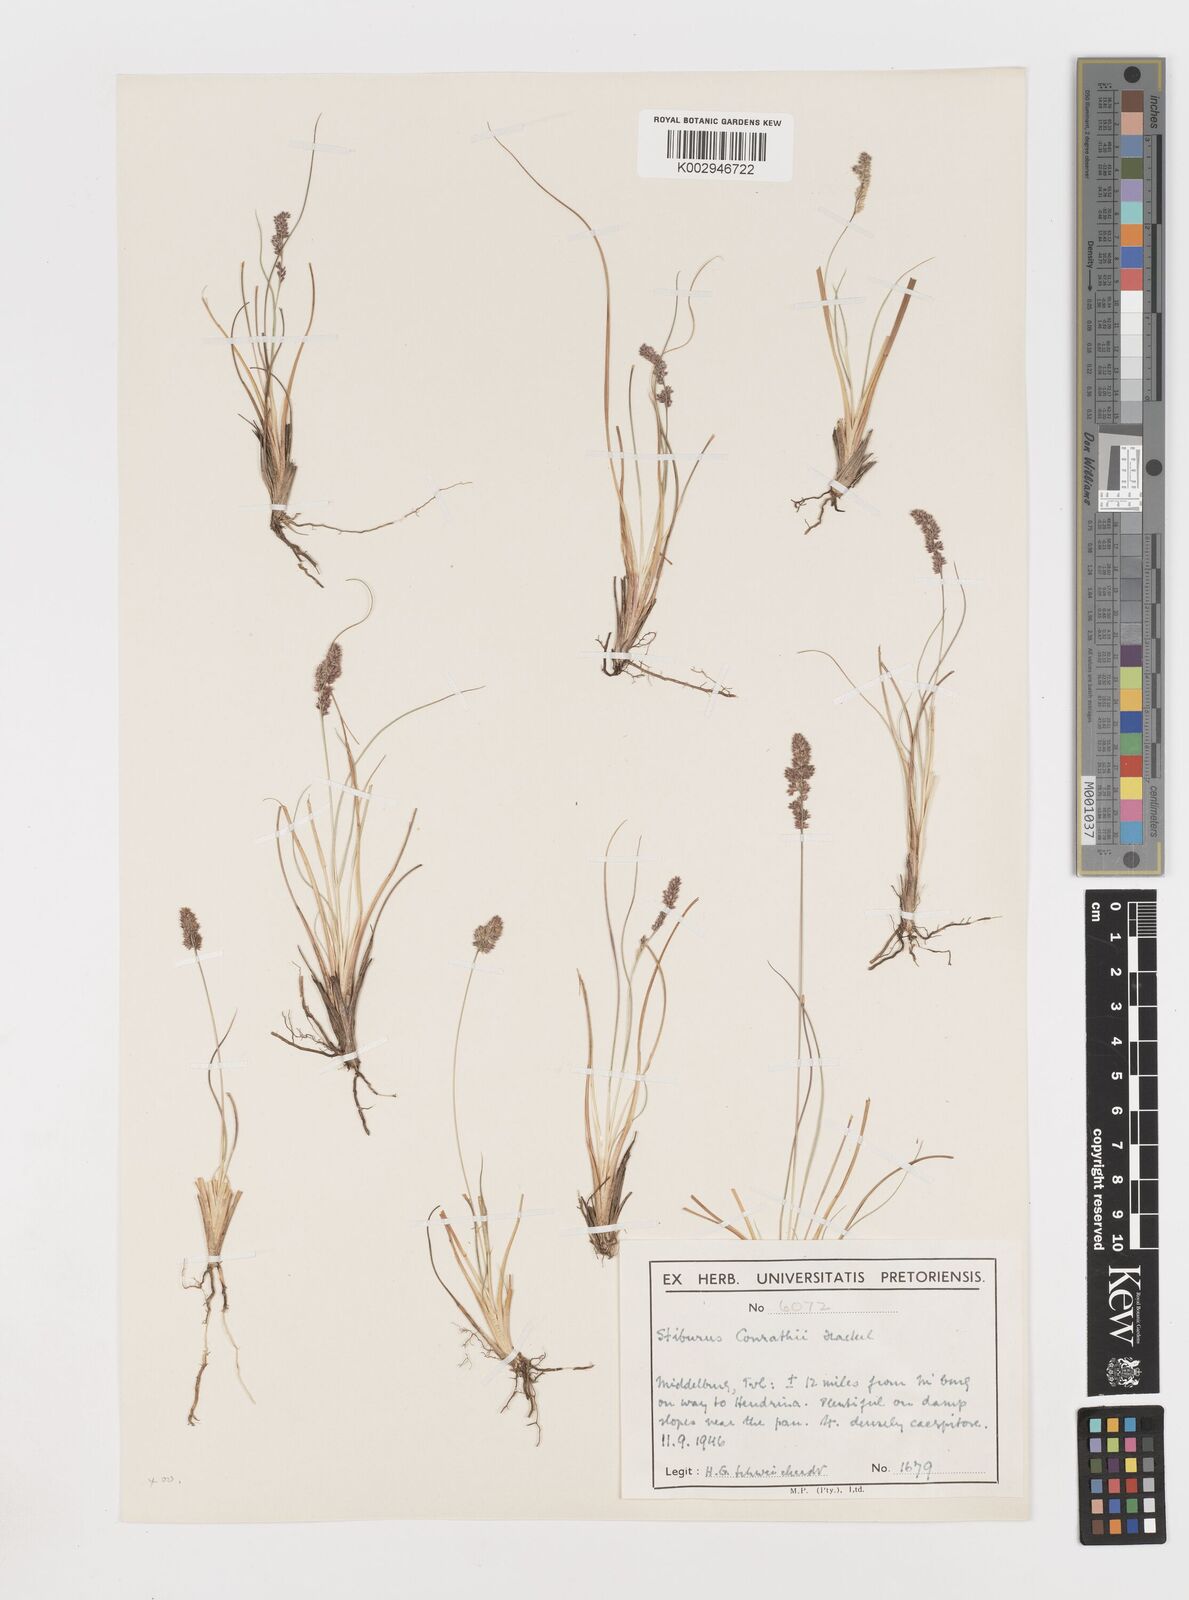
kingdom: Plantae
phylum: Tracheophyta
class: Liliopsida
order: Poales
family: Poaceae
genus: Stiburus
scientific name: Stiburus conrathii
